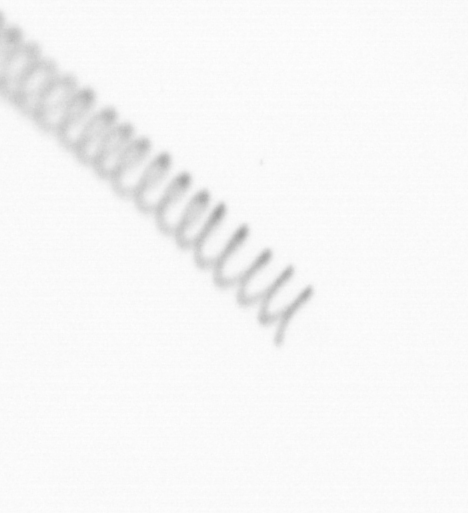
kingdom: Chromista
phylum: Ochrophyta
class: Bacillariophyceae
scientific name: Bacillariophyceae
